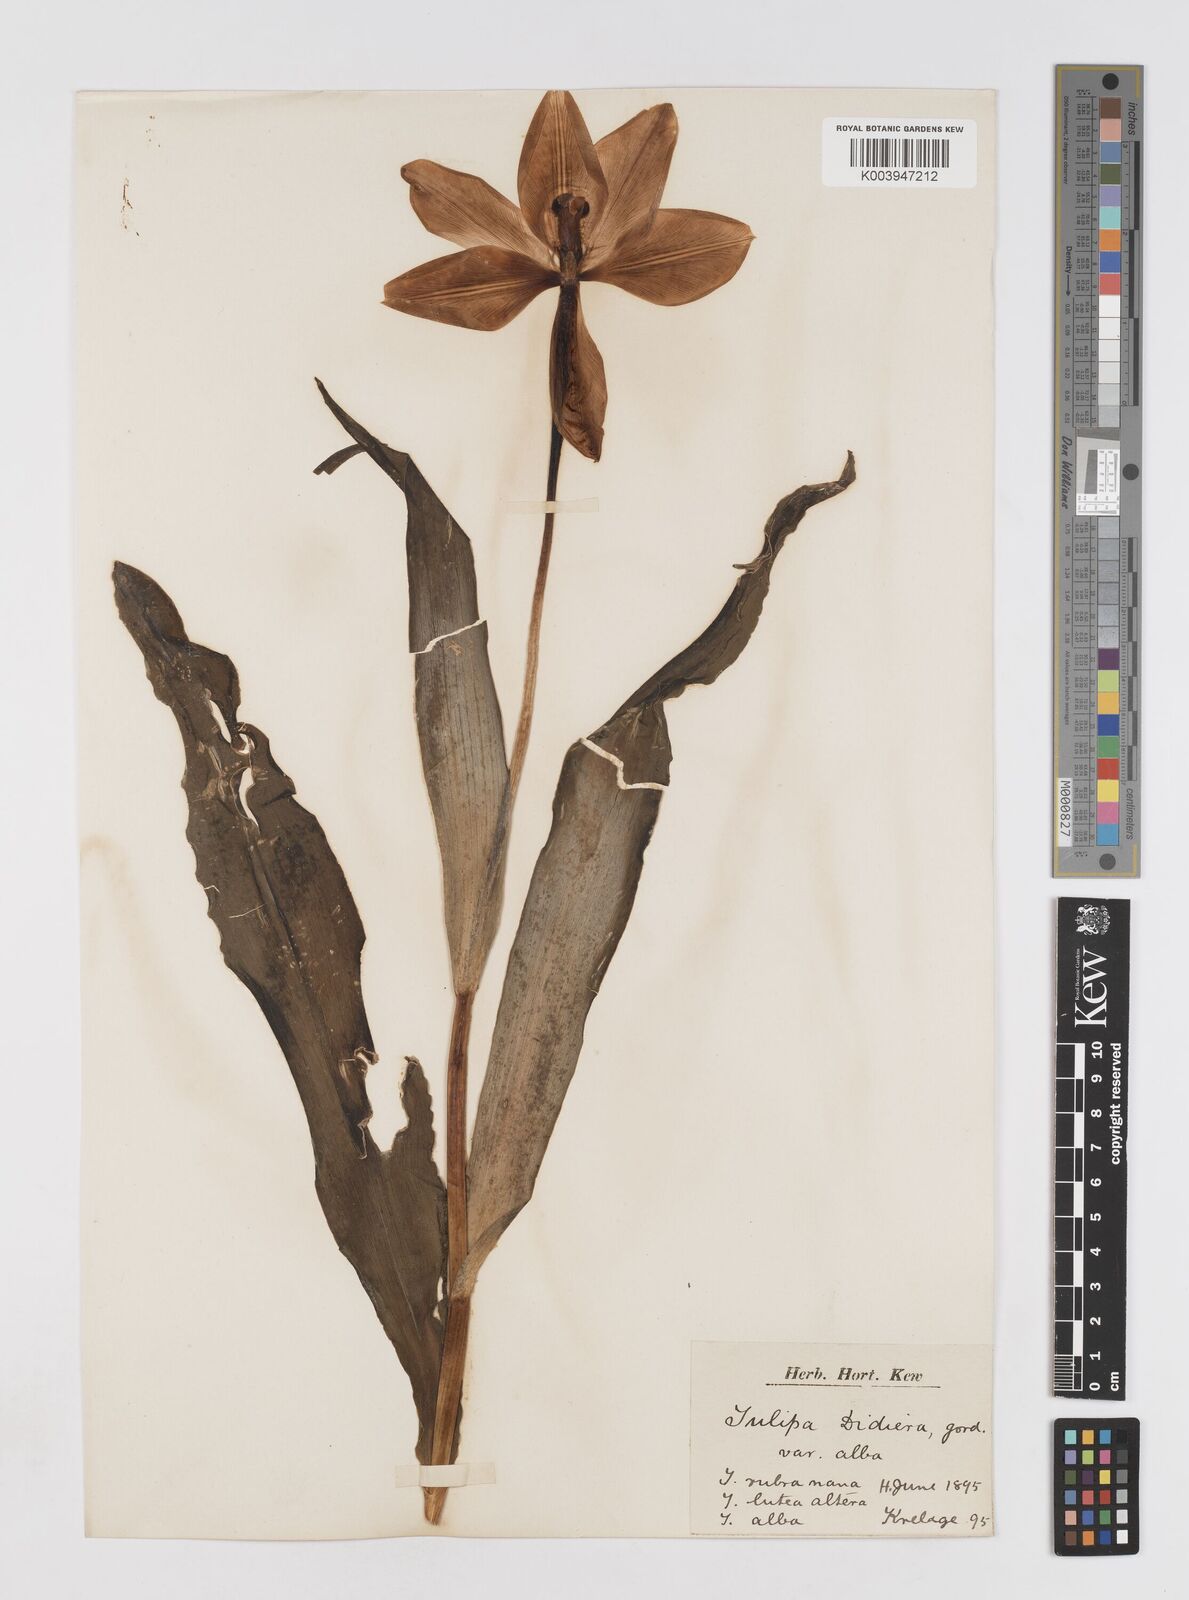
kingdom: Plantae
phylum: Tracheophyta
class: Liliopsida
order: Liliales
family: Liliaceae
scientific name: Liliaceae
